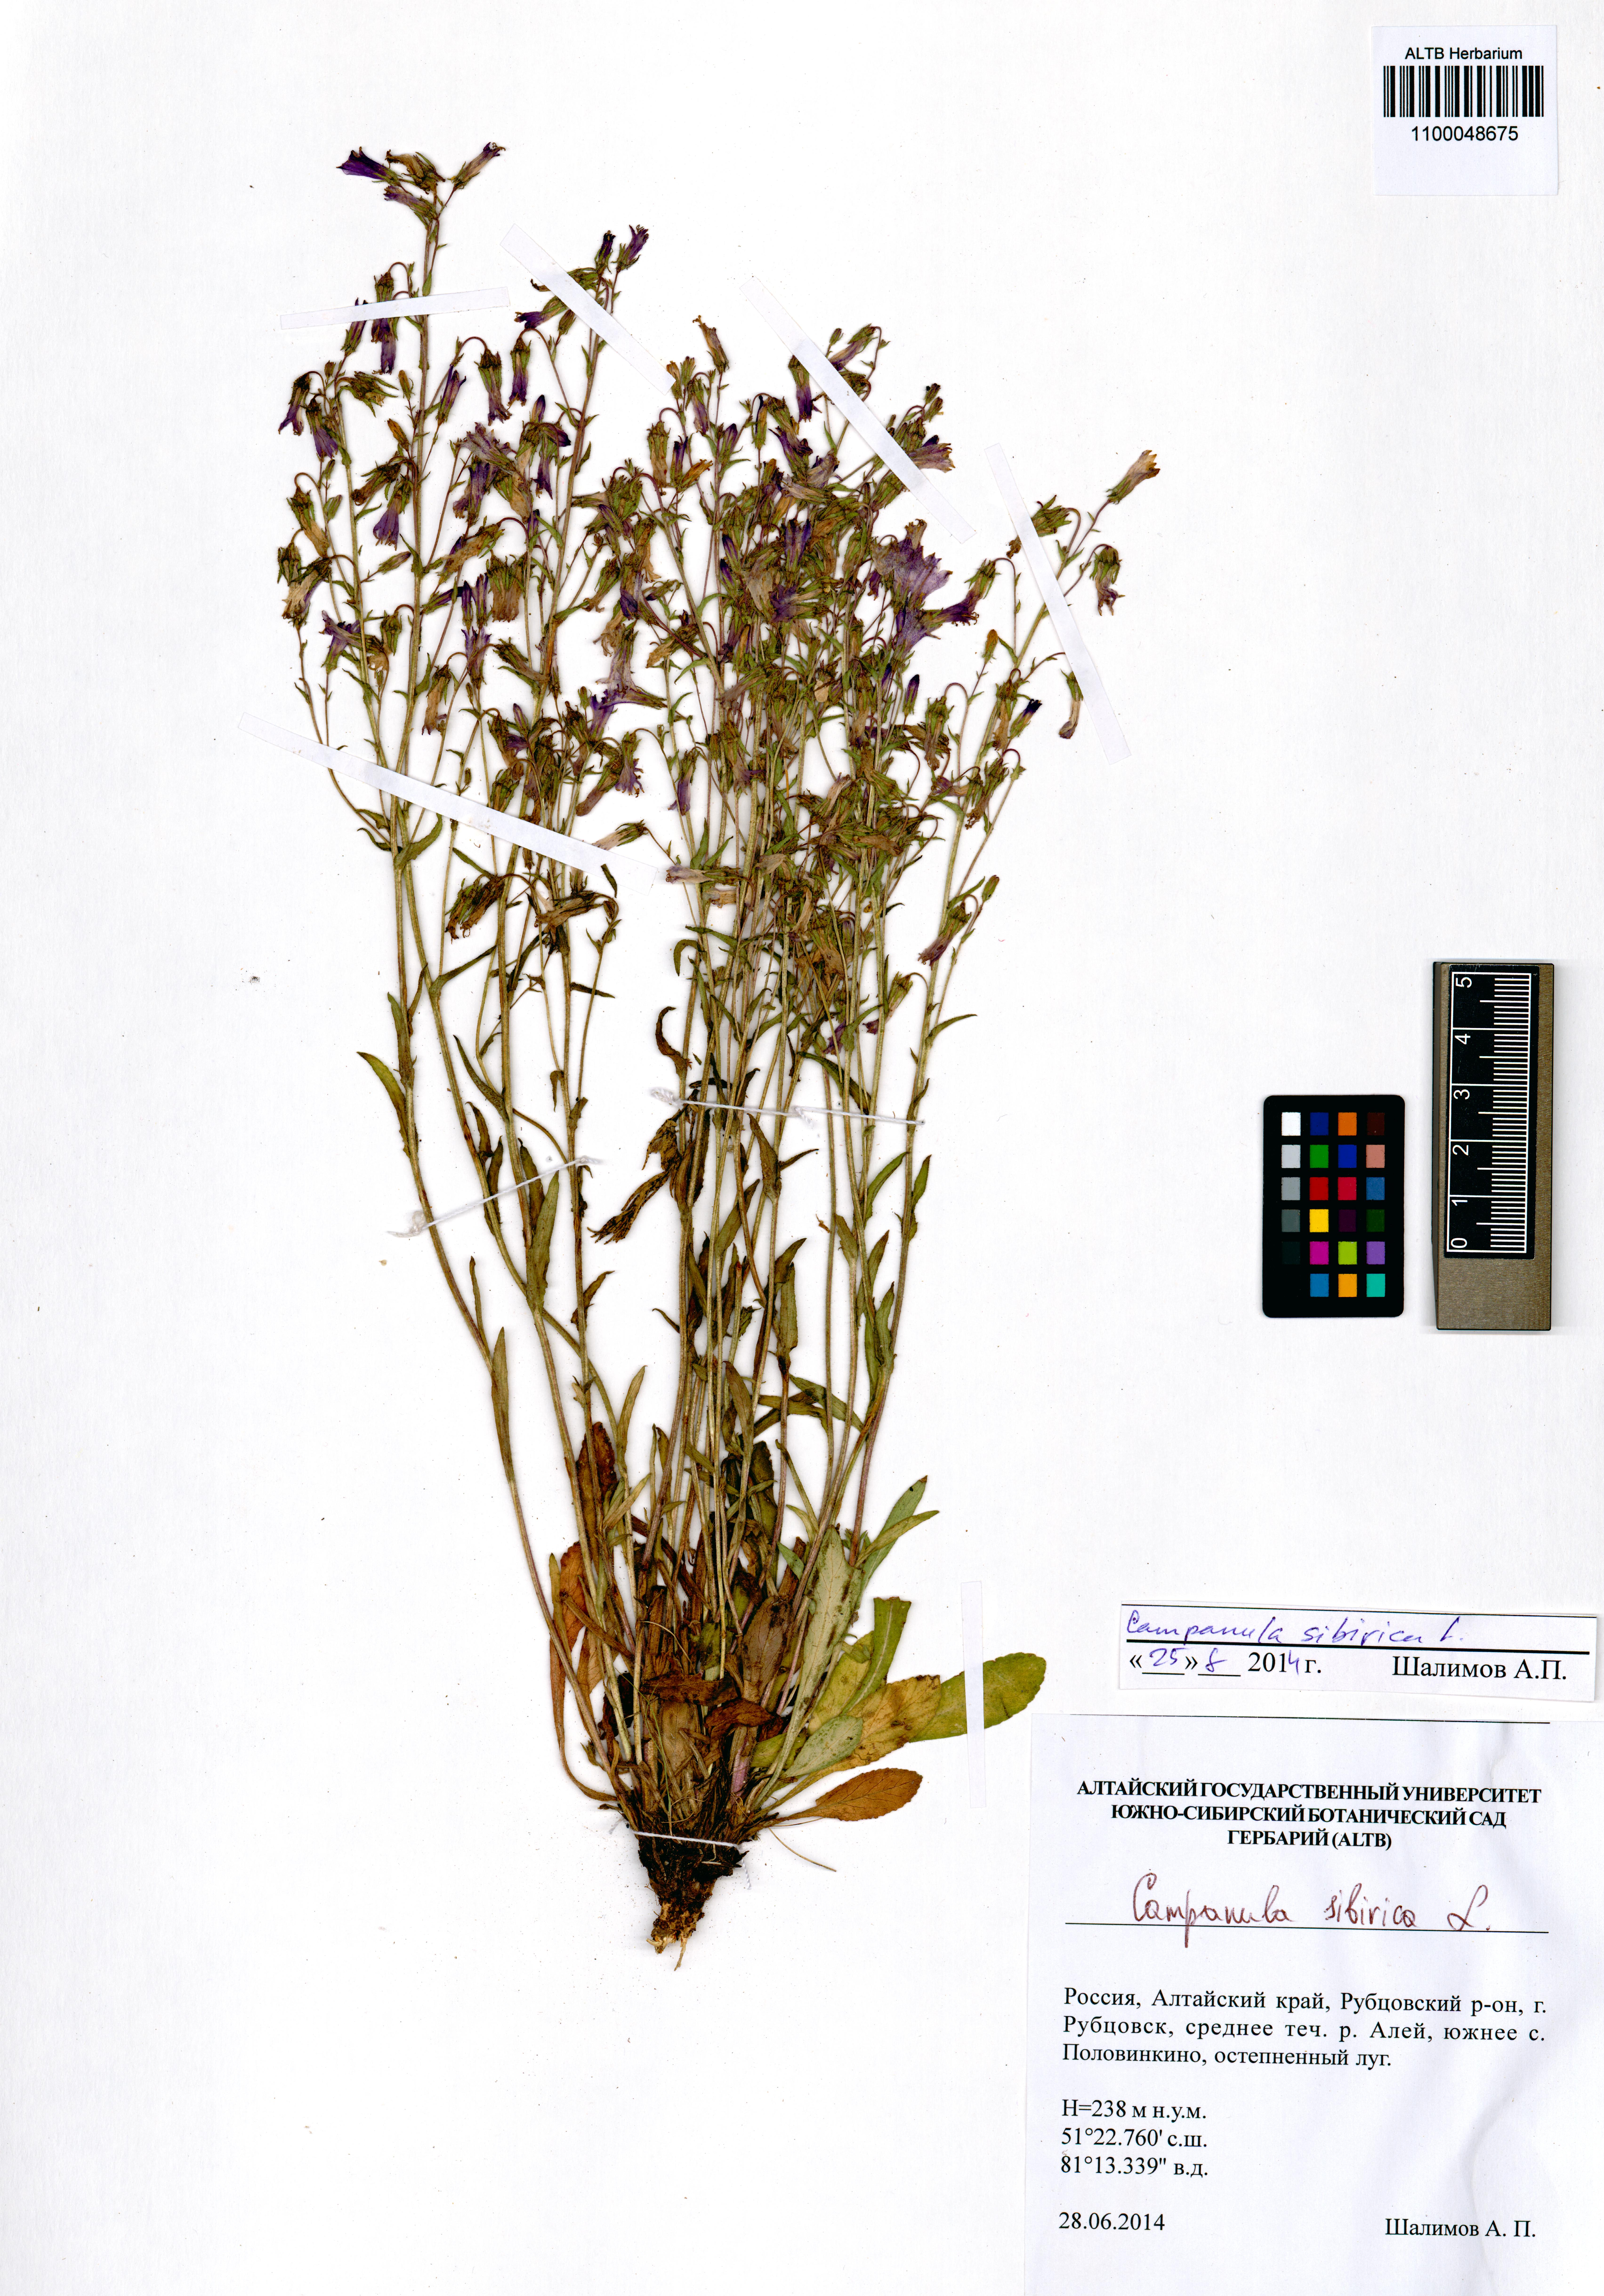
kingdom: Plantae
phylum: Tracheophyta
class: Magnoliopsida
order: Asterales
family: Campanulaceae
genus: Campanula
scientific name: Campanula sibirica
